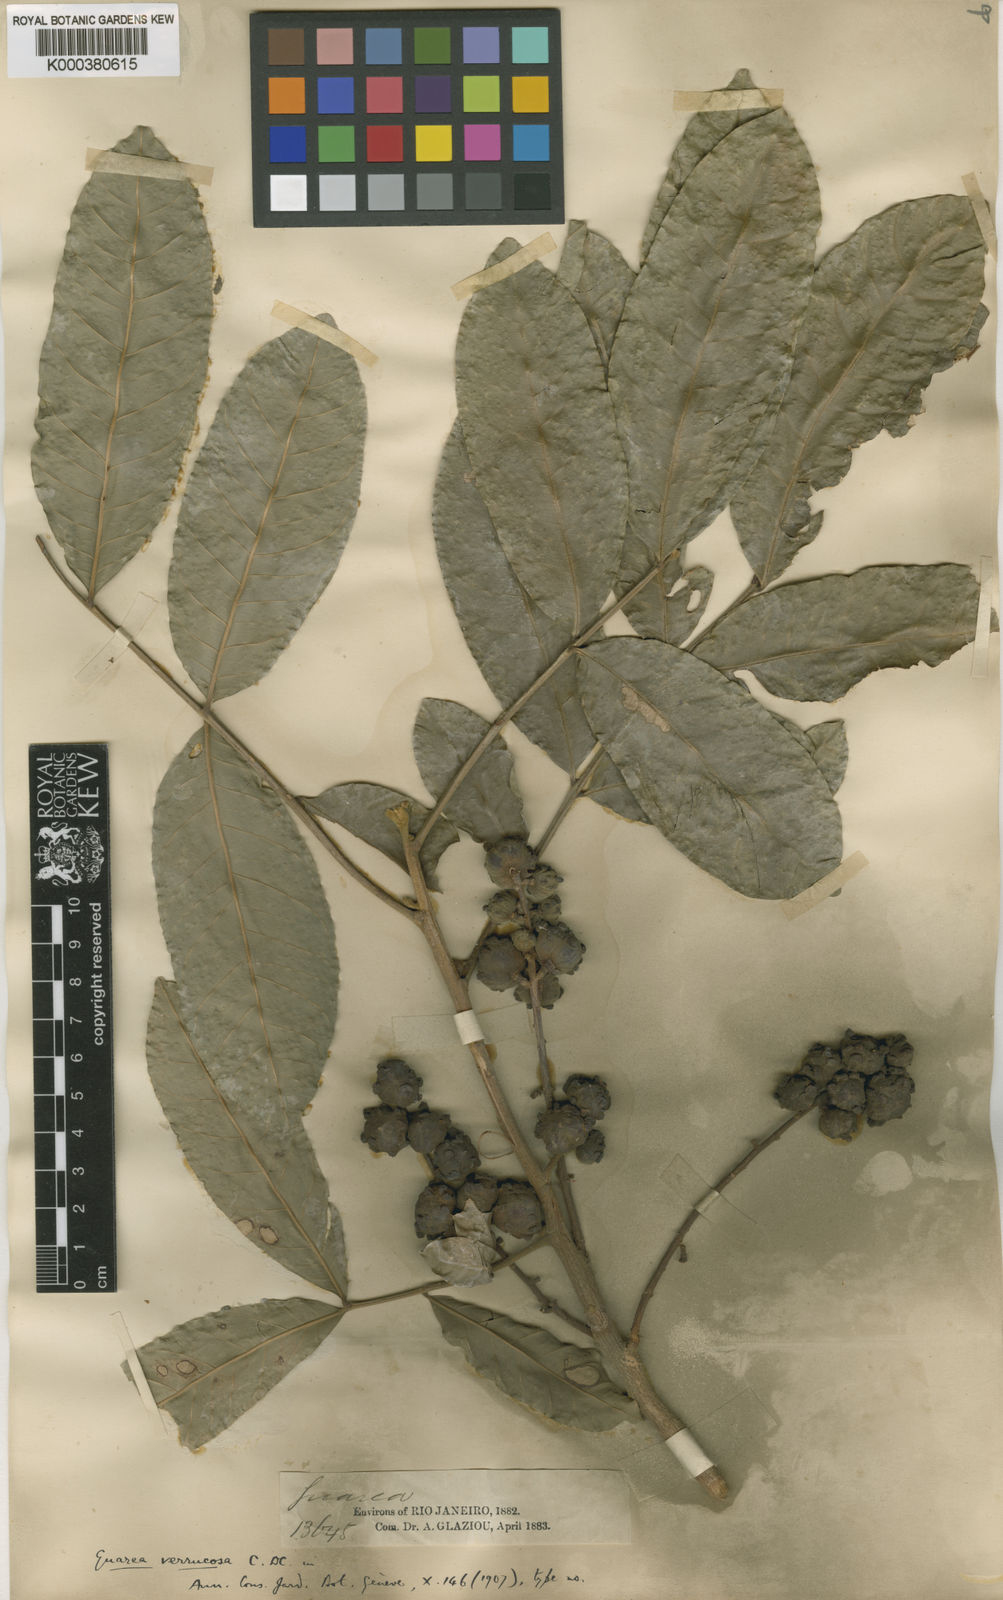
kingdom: Plantae
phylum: Tracheophyta
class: Magnoliopsida
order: Sapindales
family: Meliaceae
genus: Guarea
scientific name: Guarea macrophylla
